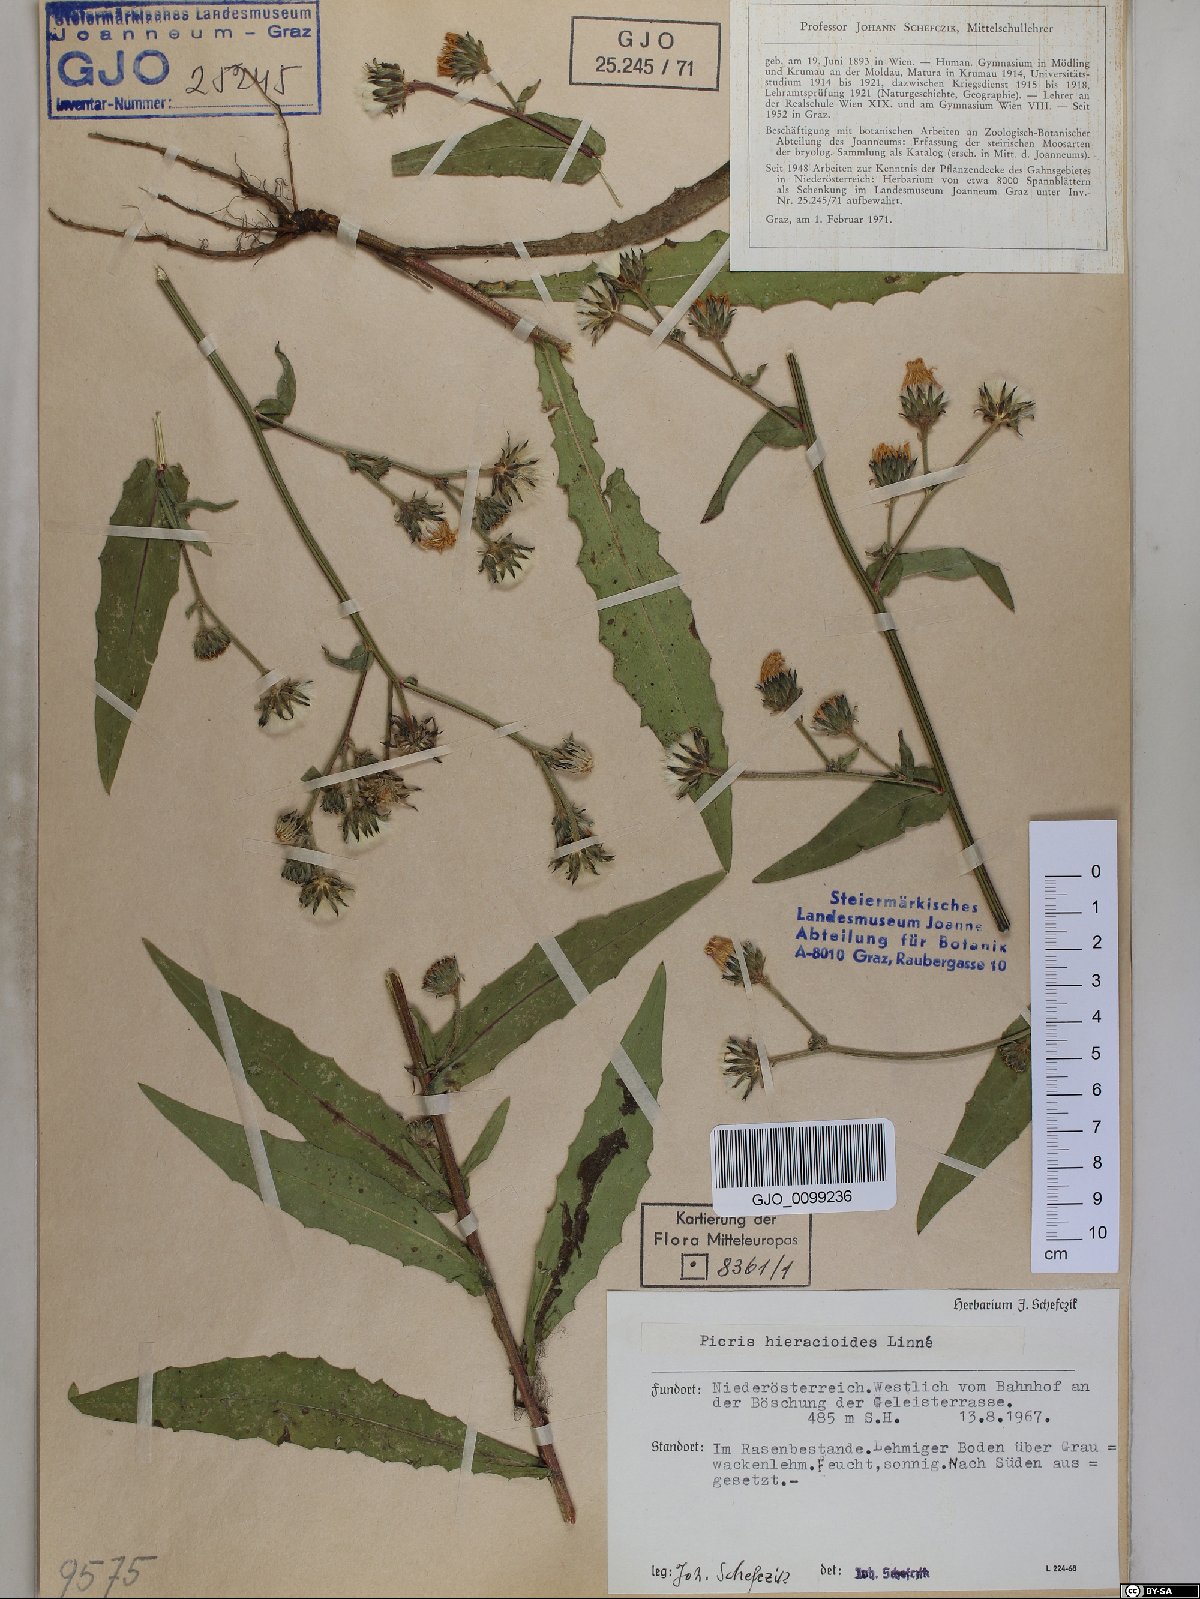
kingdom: Plantae
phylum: Tracheophyta
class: Magnoliopsida
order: Asterales
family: Asteraceae
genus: Picris
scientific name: Picris hieracioides
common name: Hawkweed oxtongue
